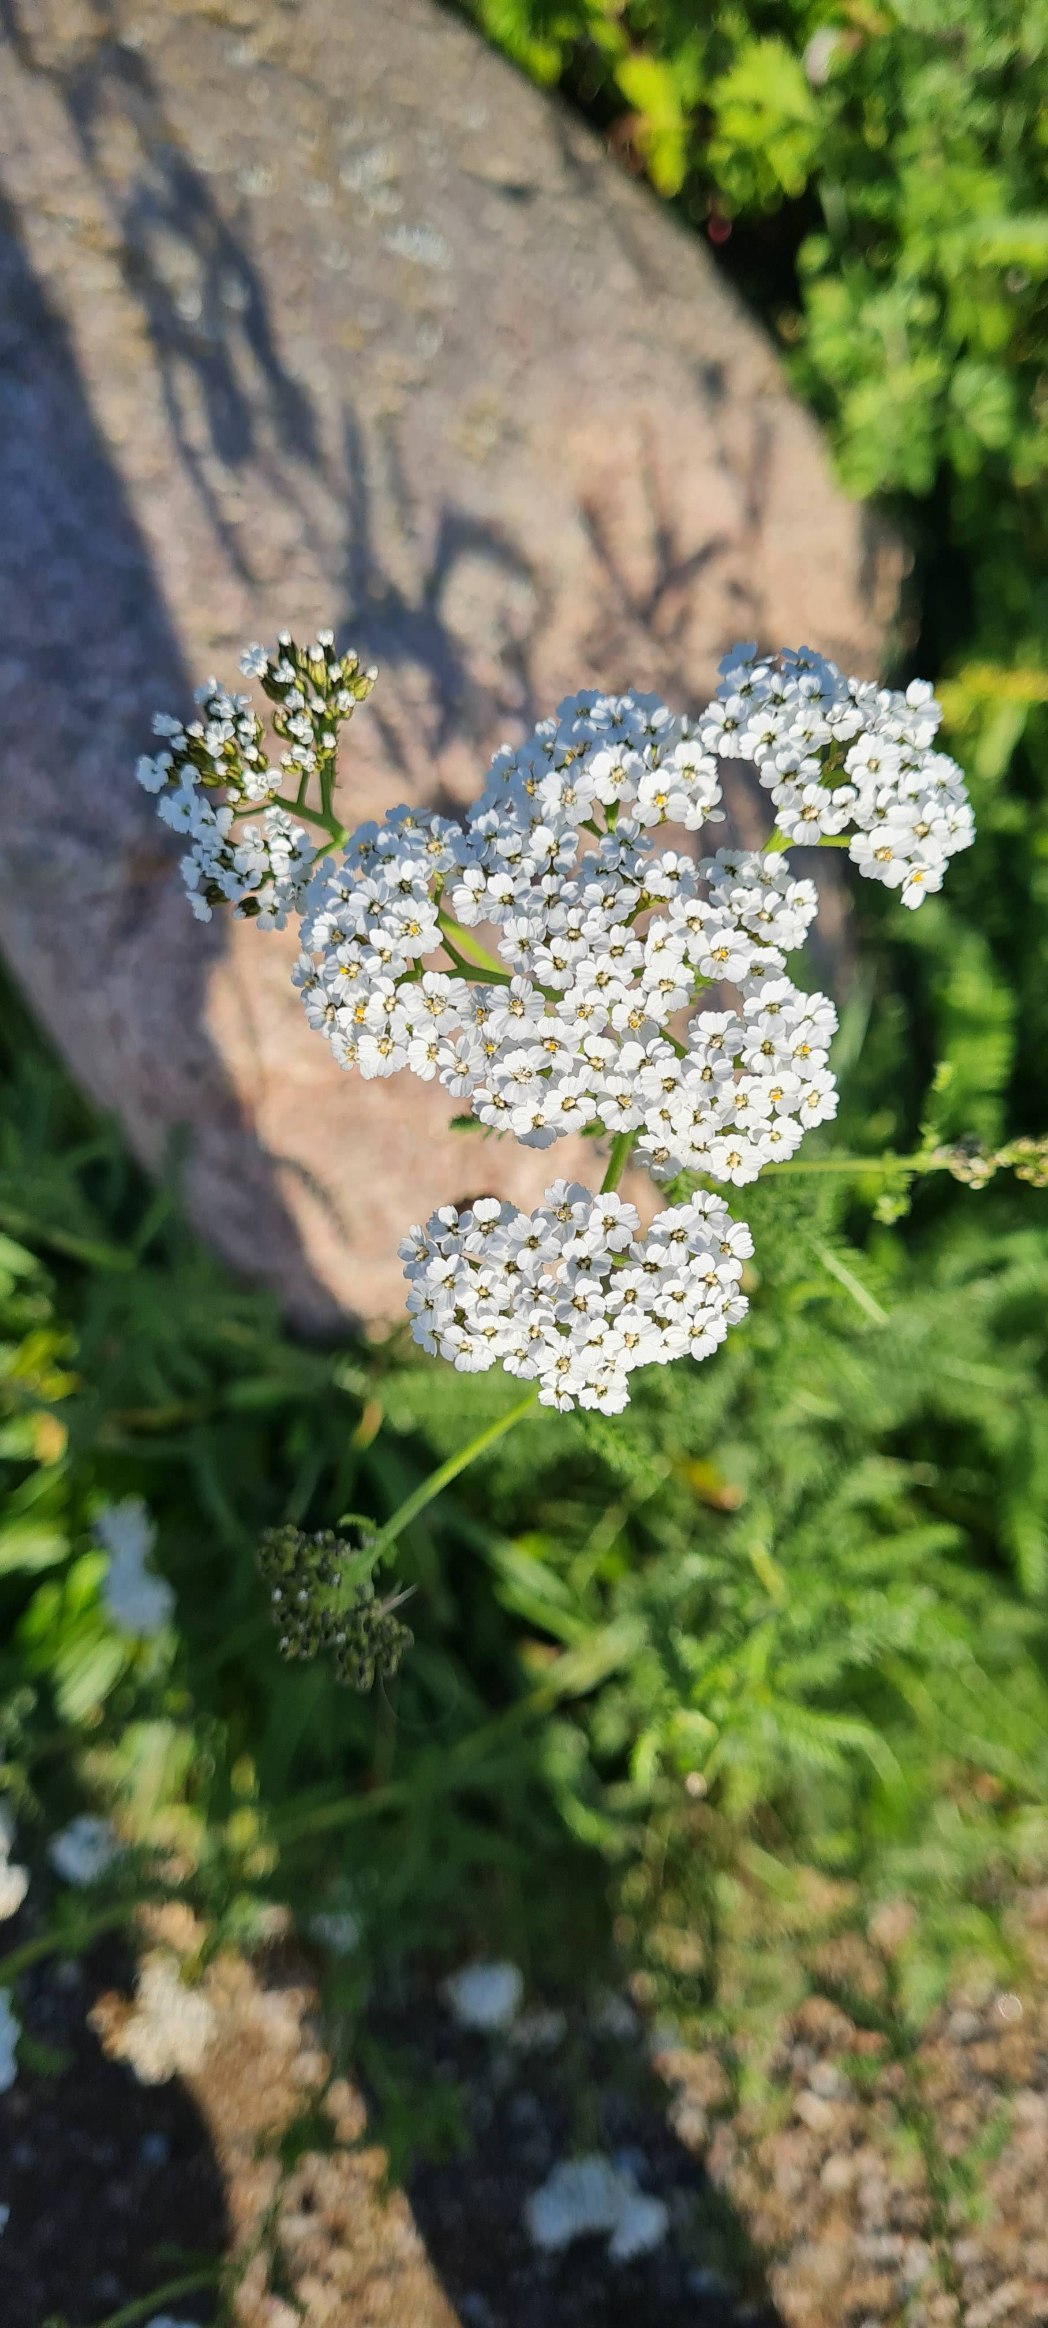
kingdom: Plantae
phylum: Tracheophyta
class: Magnoliopsida
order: Asterales
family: Asteraceae
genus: Achillea
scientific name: Achillea millefolium
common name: Almindelig røllike
